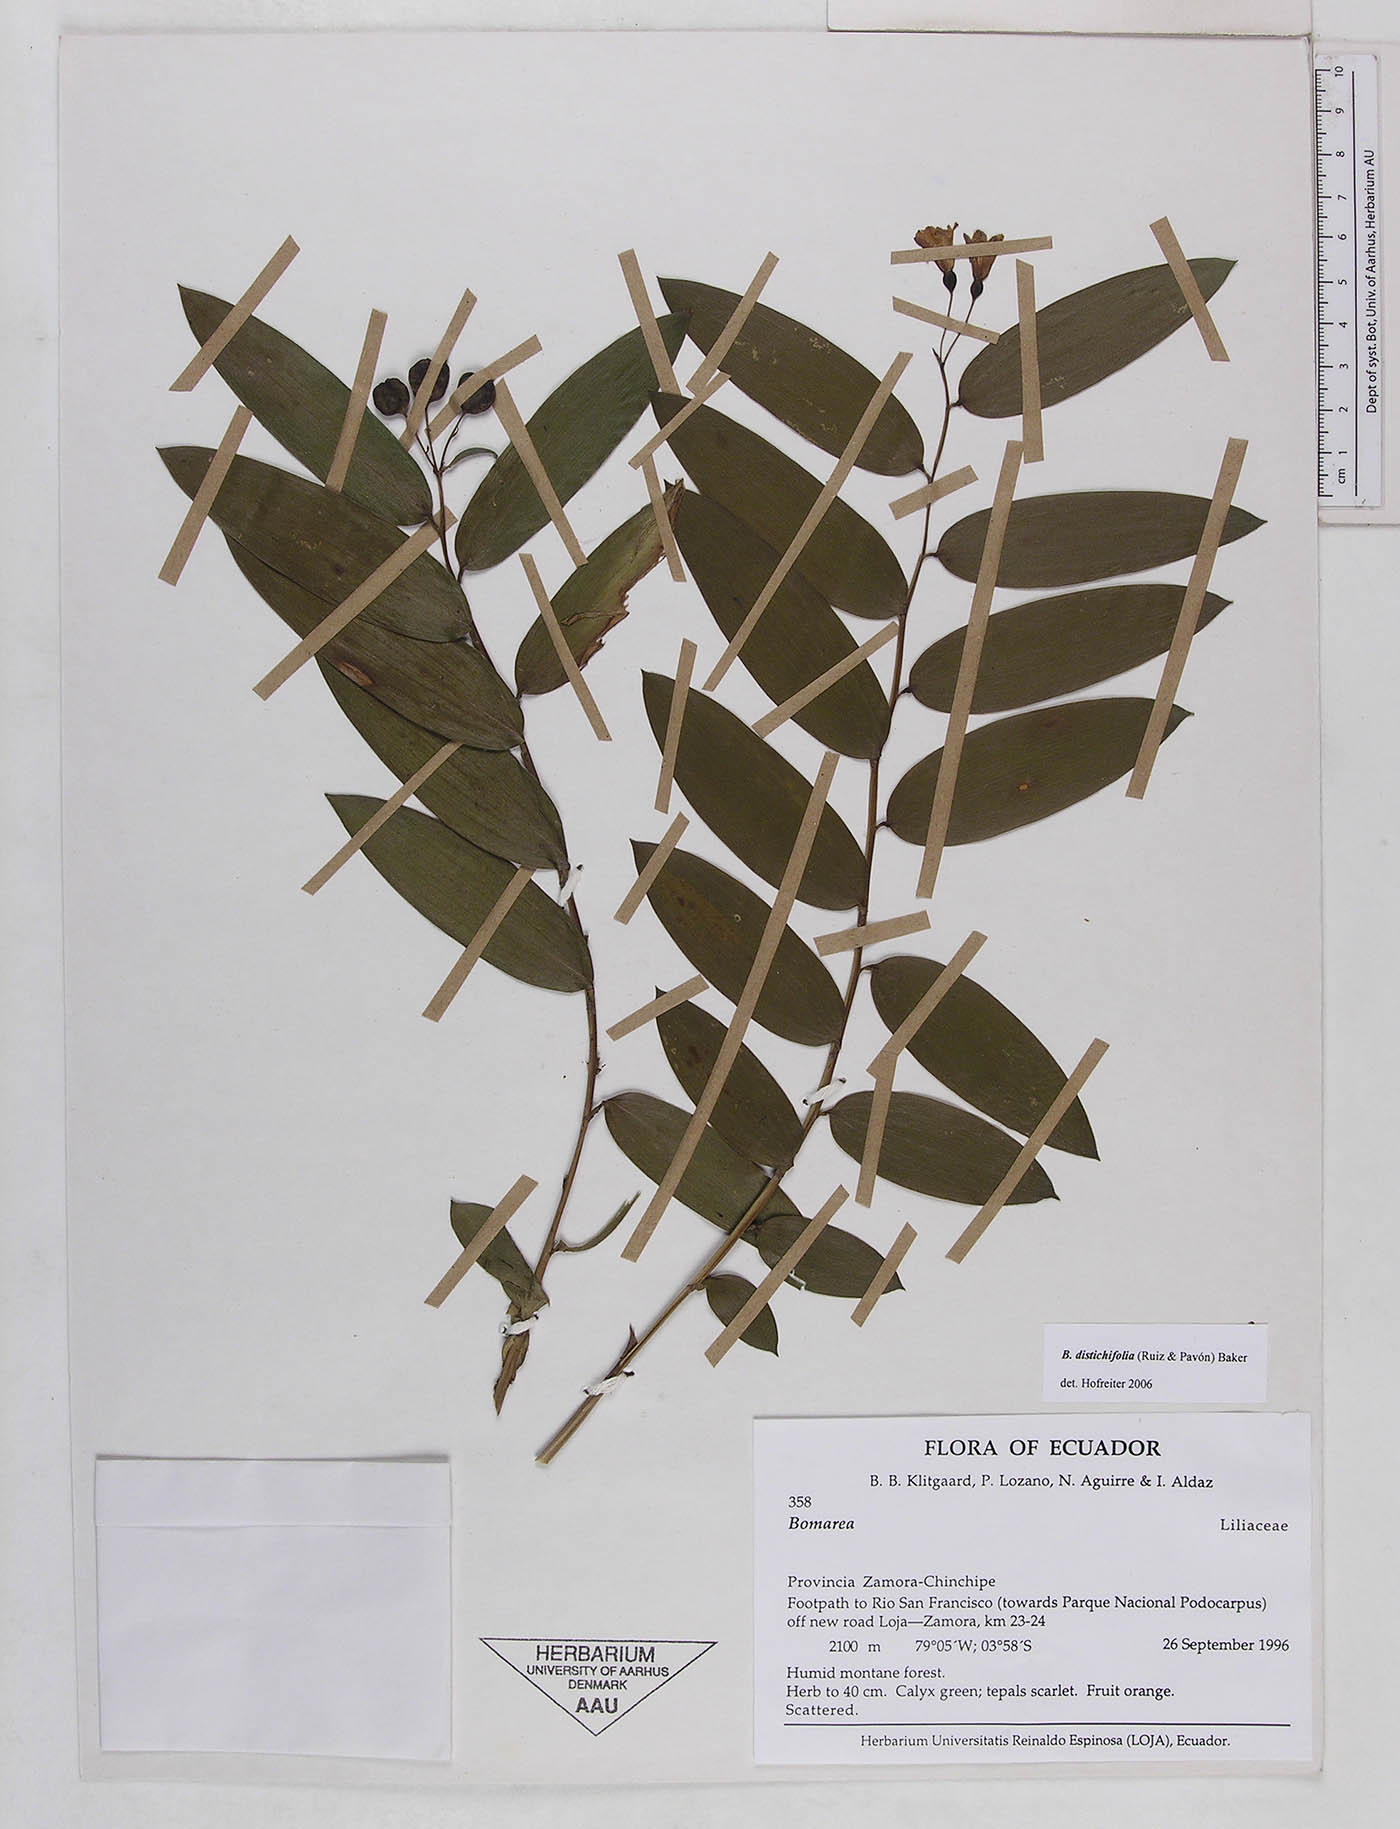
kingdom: Plantae
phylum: Tracheophyta
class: Liliopsida
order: Liliales
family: Alstroemeriaceae
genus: Bomarea
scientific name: Bomarea dissitifolia
